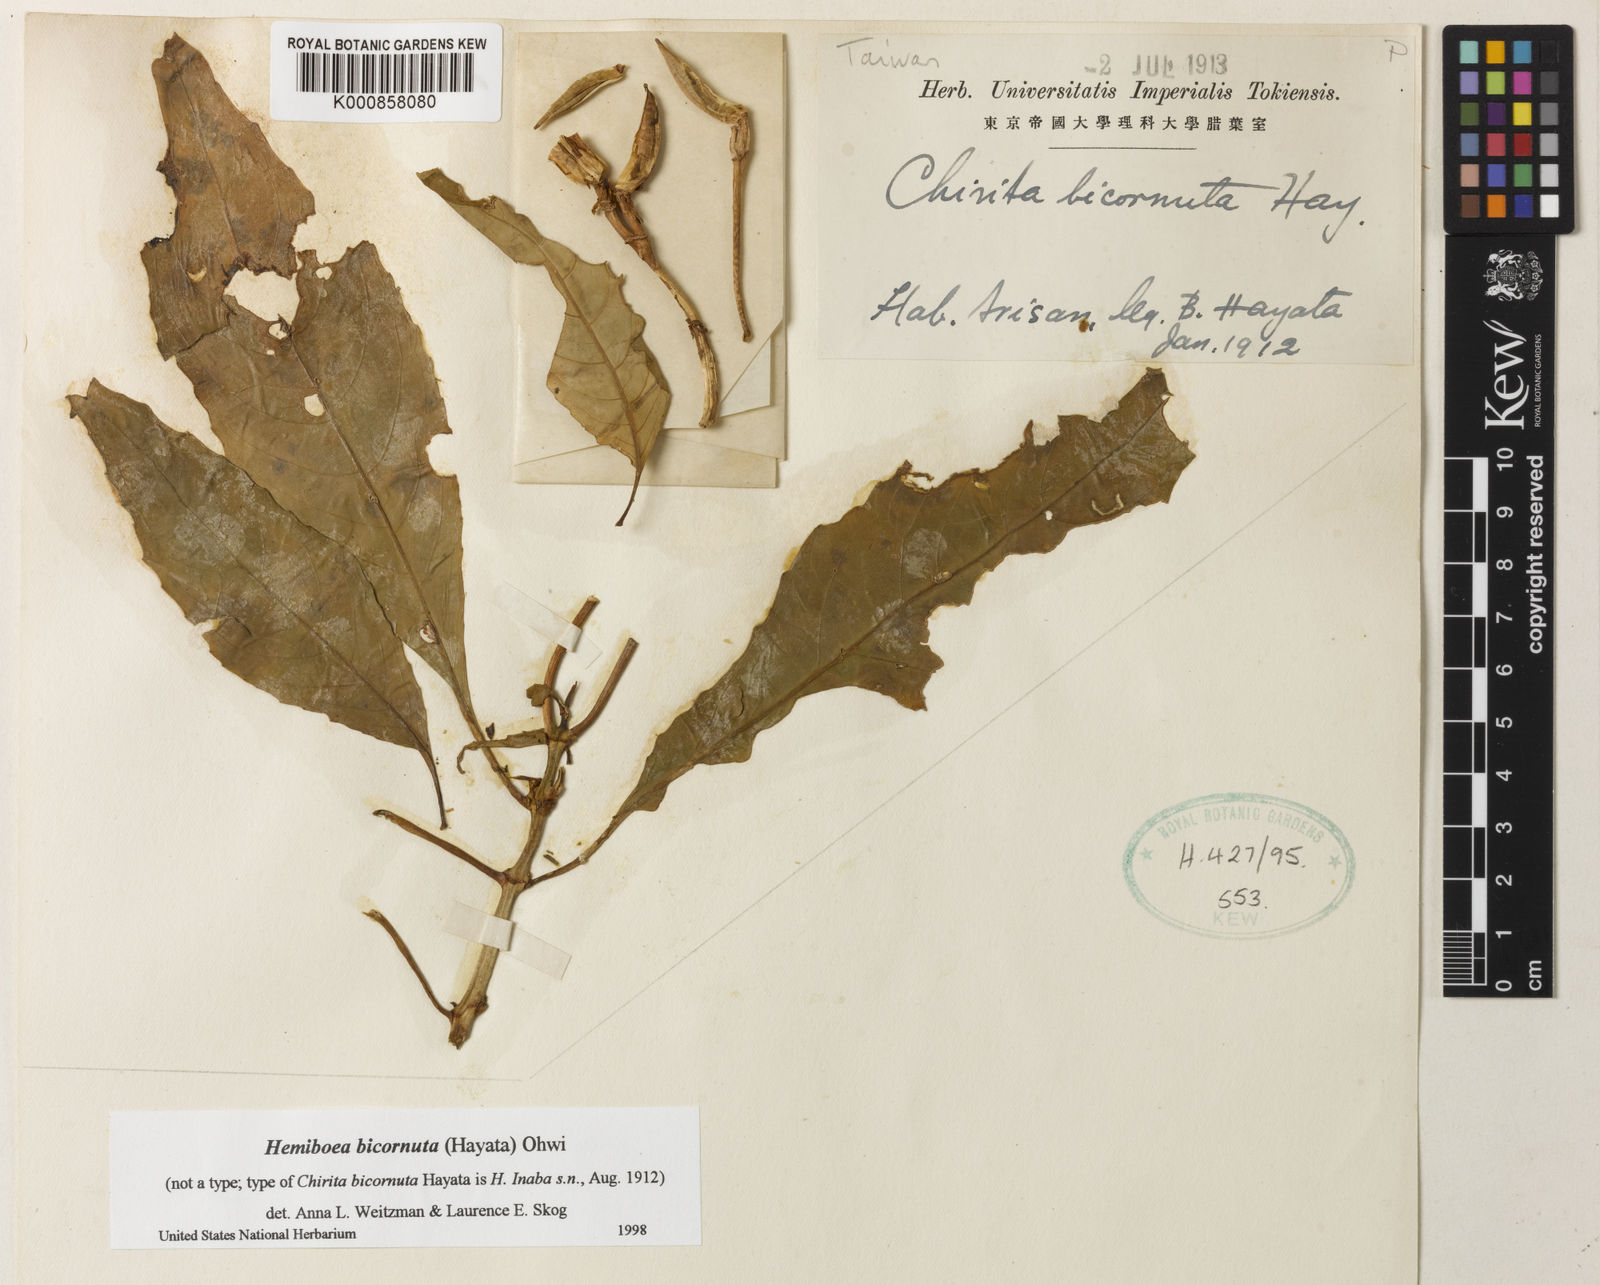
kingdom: Plantae
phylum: Tracheophyta
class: Magnoliopsida
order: Lamiales
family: Gesneriaceae
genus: Hemiboea
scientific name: Hemiboea bicornuta
